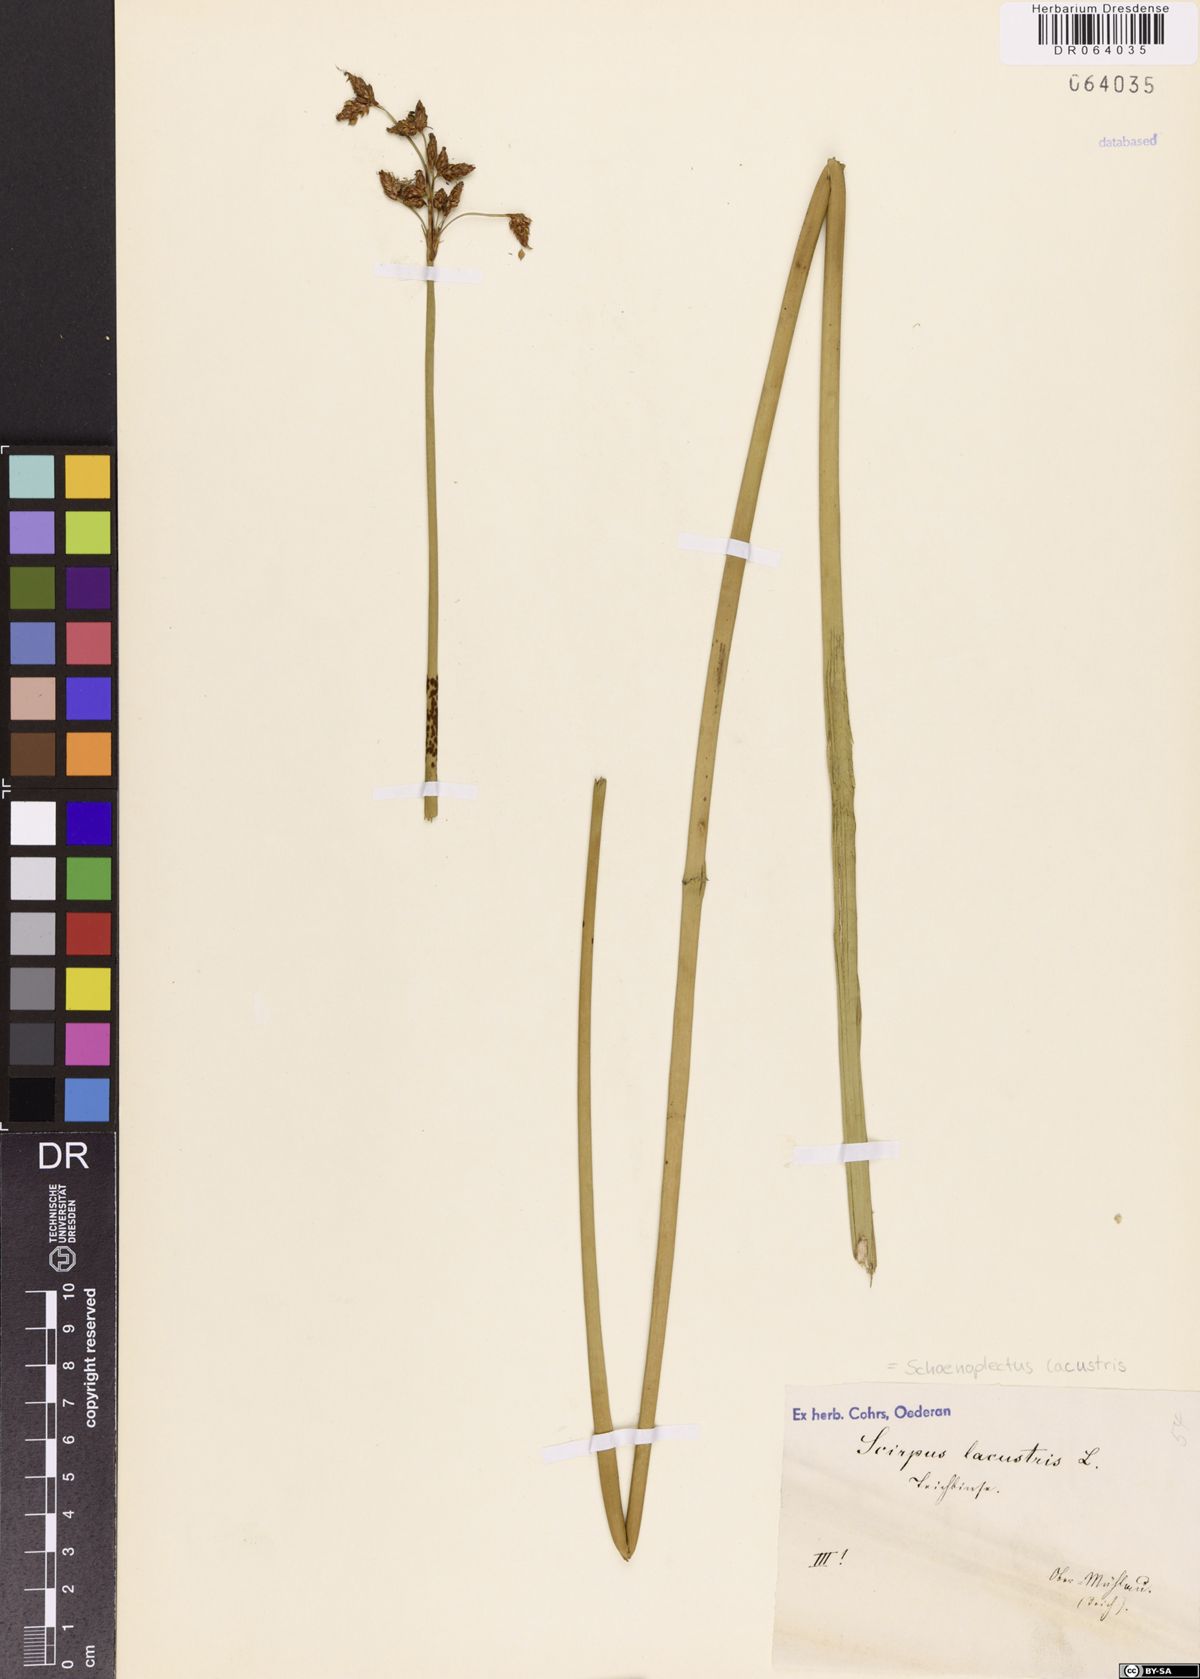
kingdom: Plantae
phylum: Tracheophyta
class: Liliopsida
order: Poales
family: Cyperaceae
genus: Schoenoplectus
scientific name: Schoenoplectus lacustris
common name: Common club-rush
